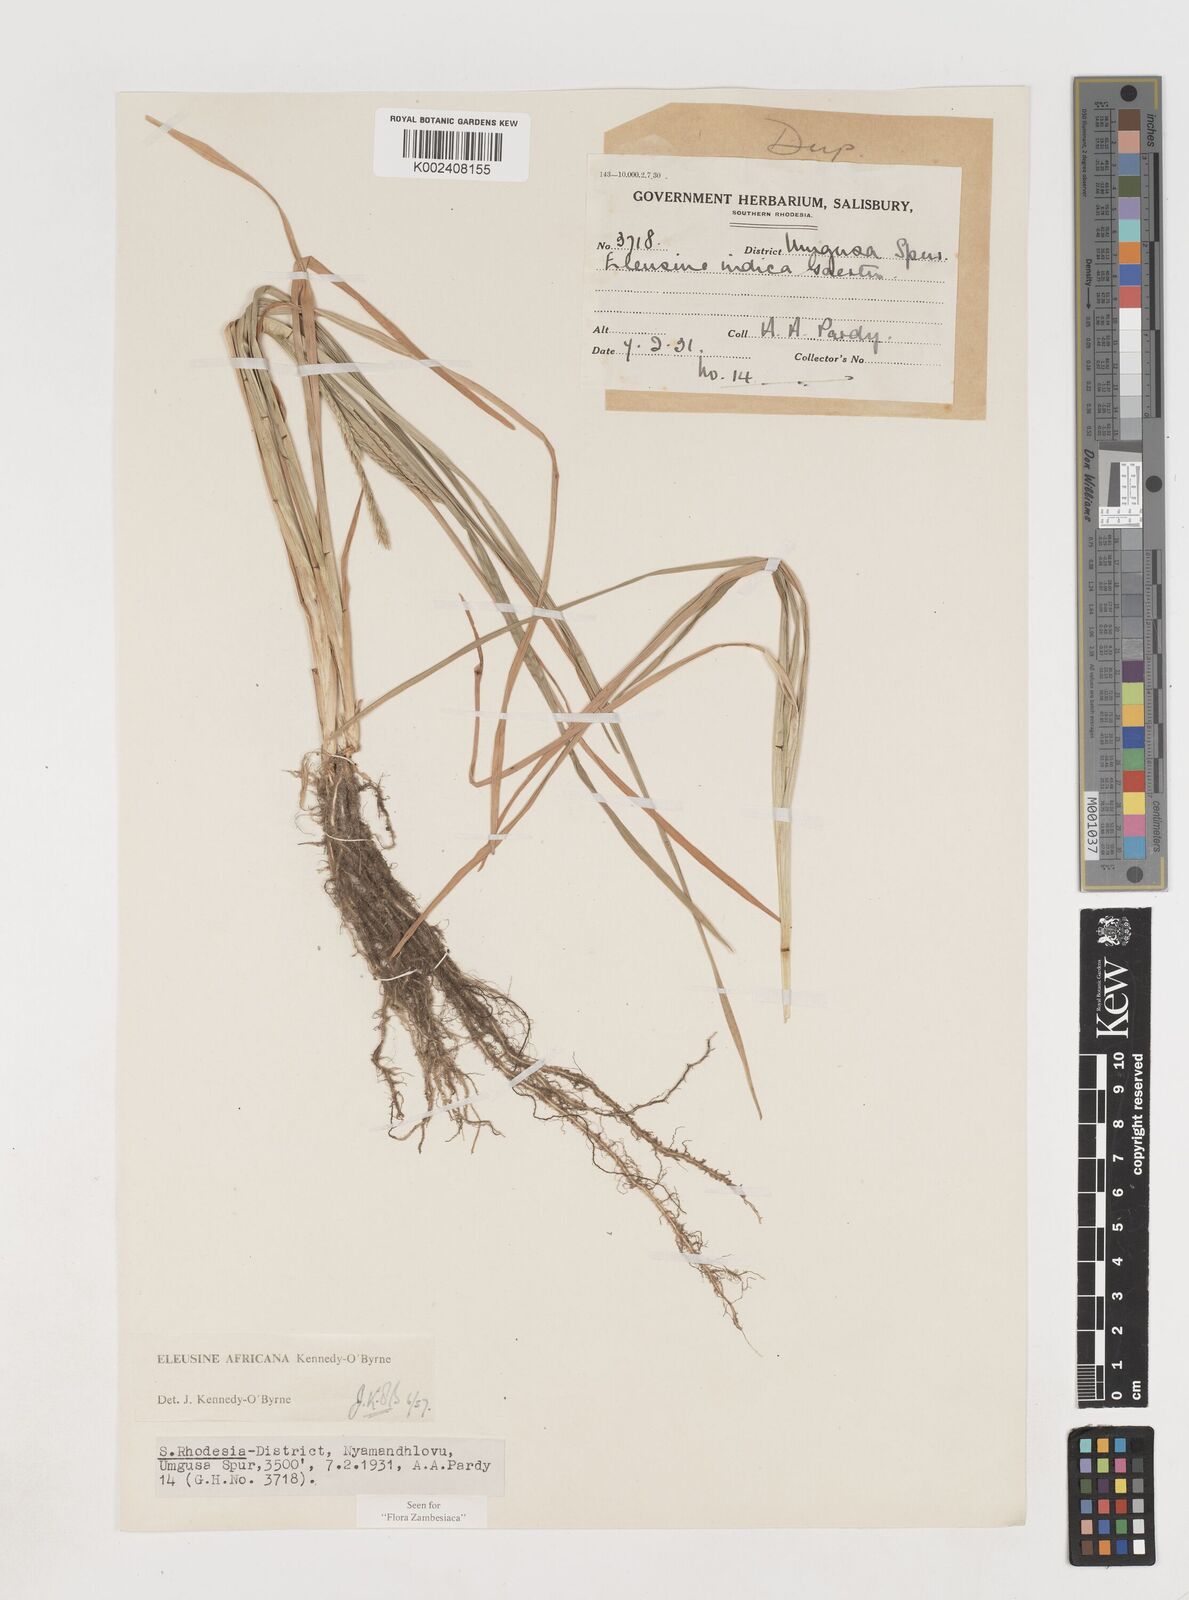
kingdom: Plantae
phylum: Tracheophyta
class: Liliopsida
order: Poales
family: Poaceae
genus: Eleusine
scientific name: Eleusine africana
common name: Wild african finger millet
